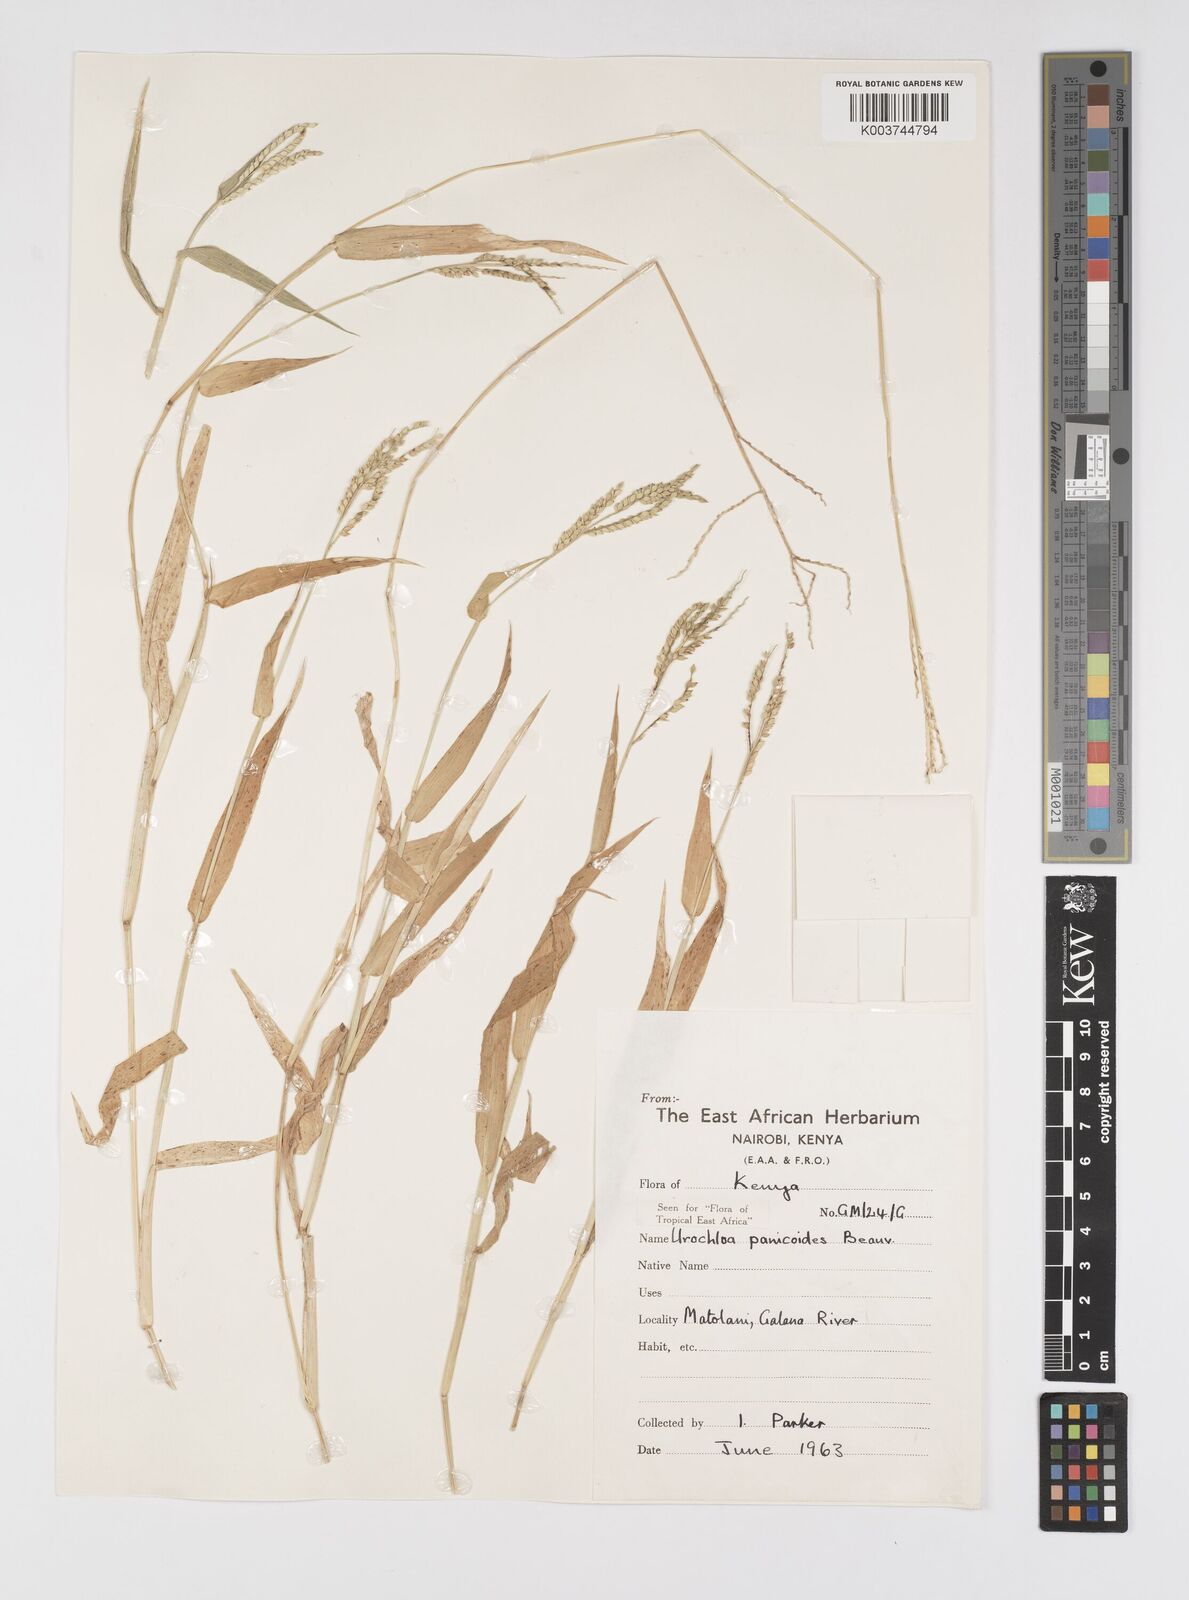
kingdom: Plantae
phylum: Tracheophyta
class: Liliopsida
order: Poales
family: Poaceae
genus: Urochloa
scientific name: Urochloa panicoides
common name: Sharp-flowered signal-grass
